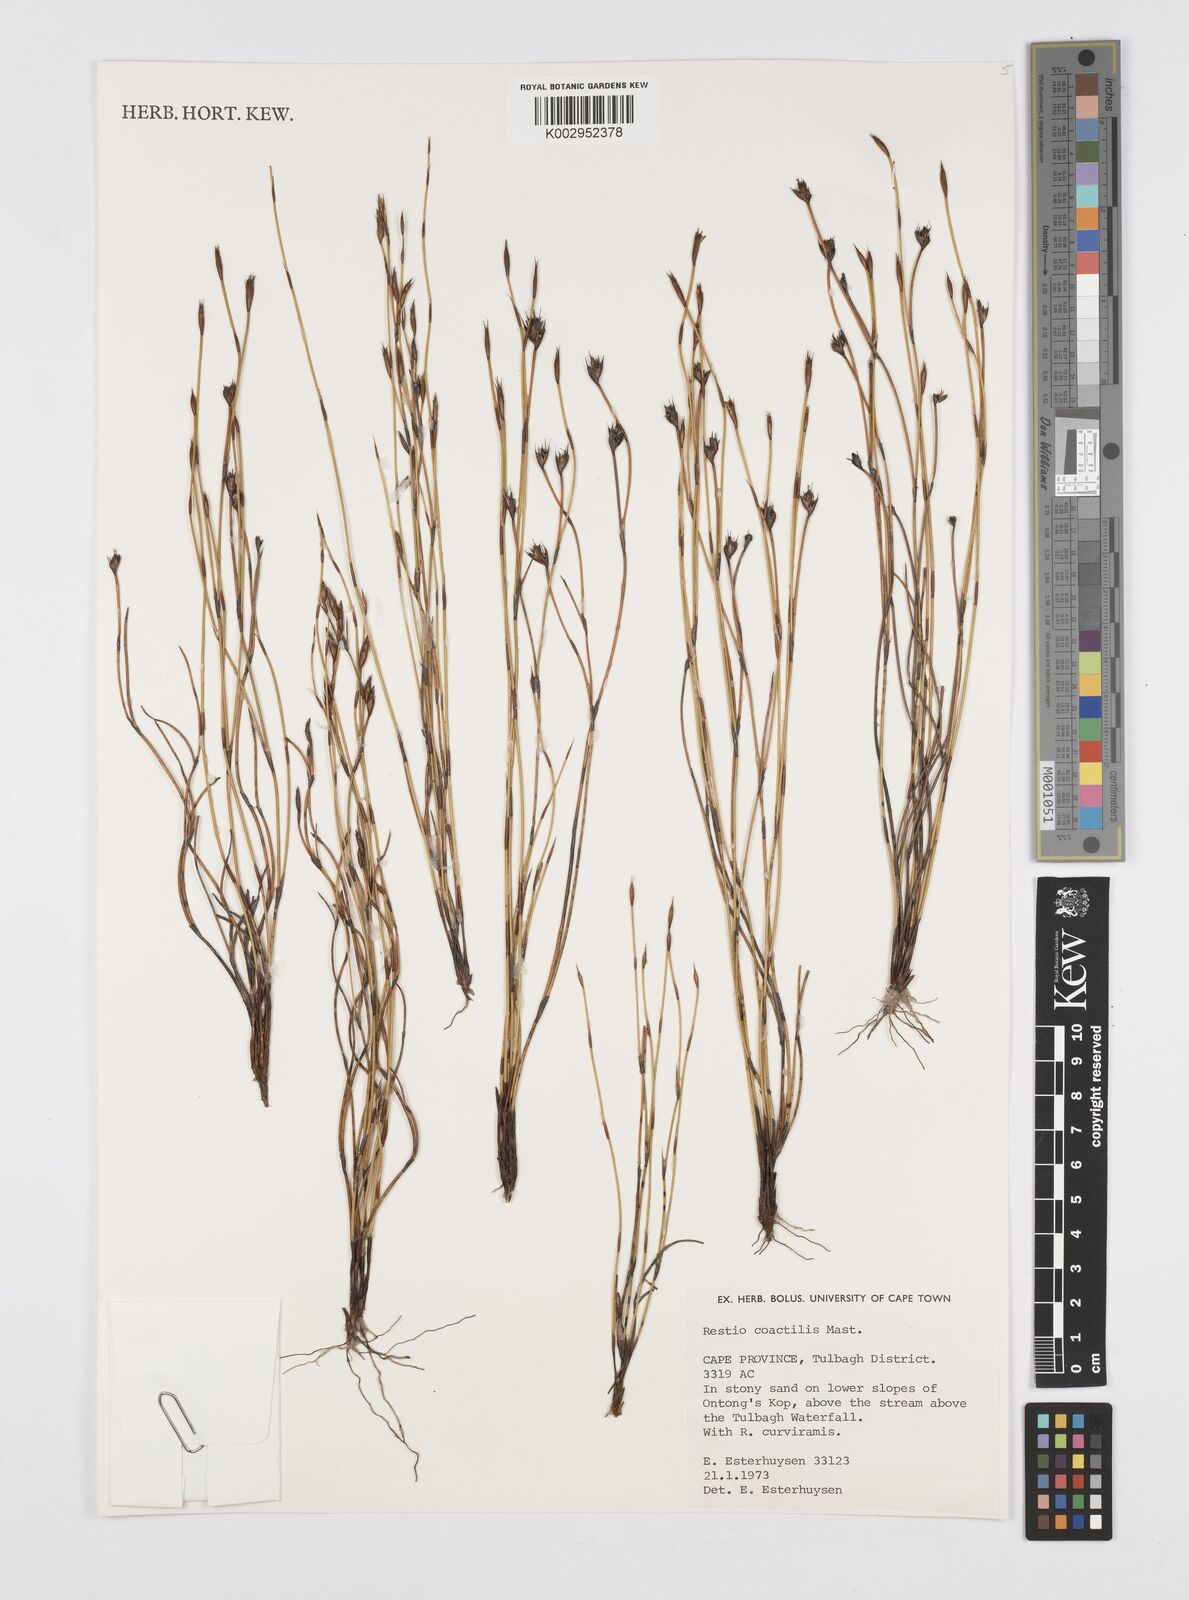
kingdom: Plantae
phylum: Tracheophyta
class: Liliopsida
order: Poales
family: Restionaceae
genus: Restio
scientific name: Restio coactilis
